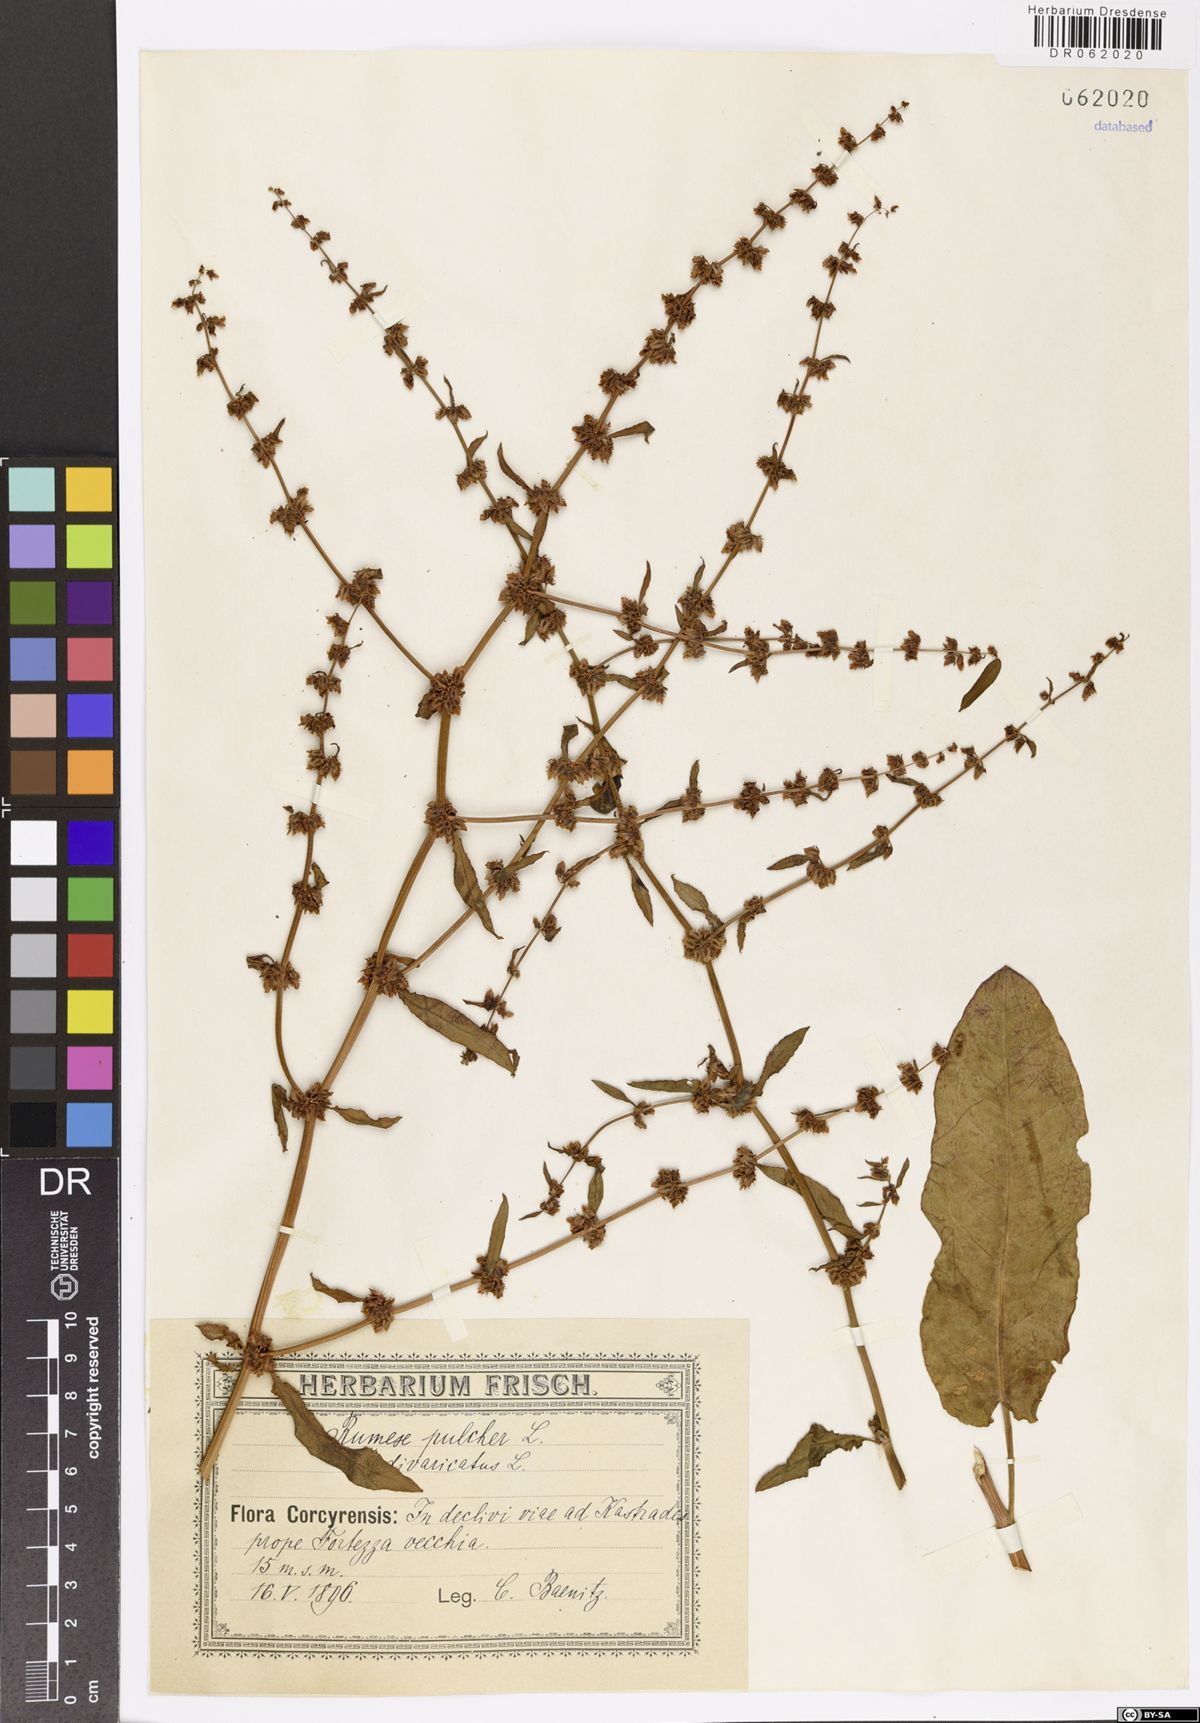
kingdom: Plantae
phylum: Tracheophyta
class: Magnoliopsida
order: Caryophyllales
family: Polygonaceae
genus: Rumex
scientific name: Rumex pulcher
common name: Fiddle dock
